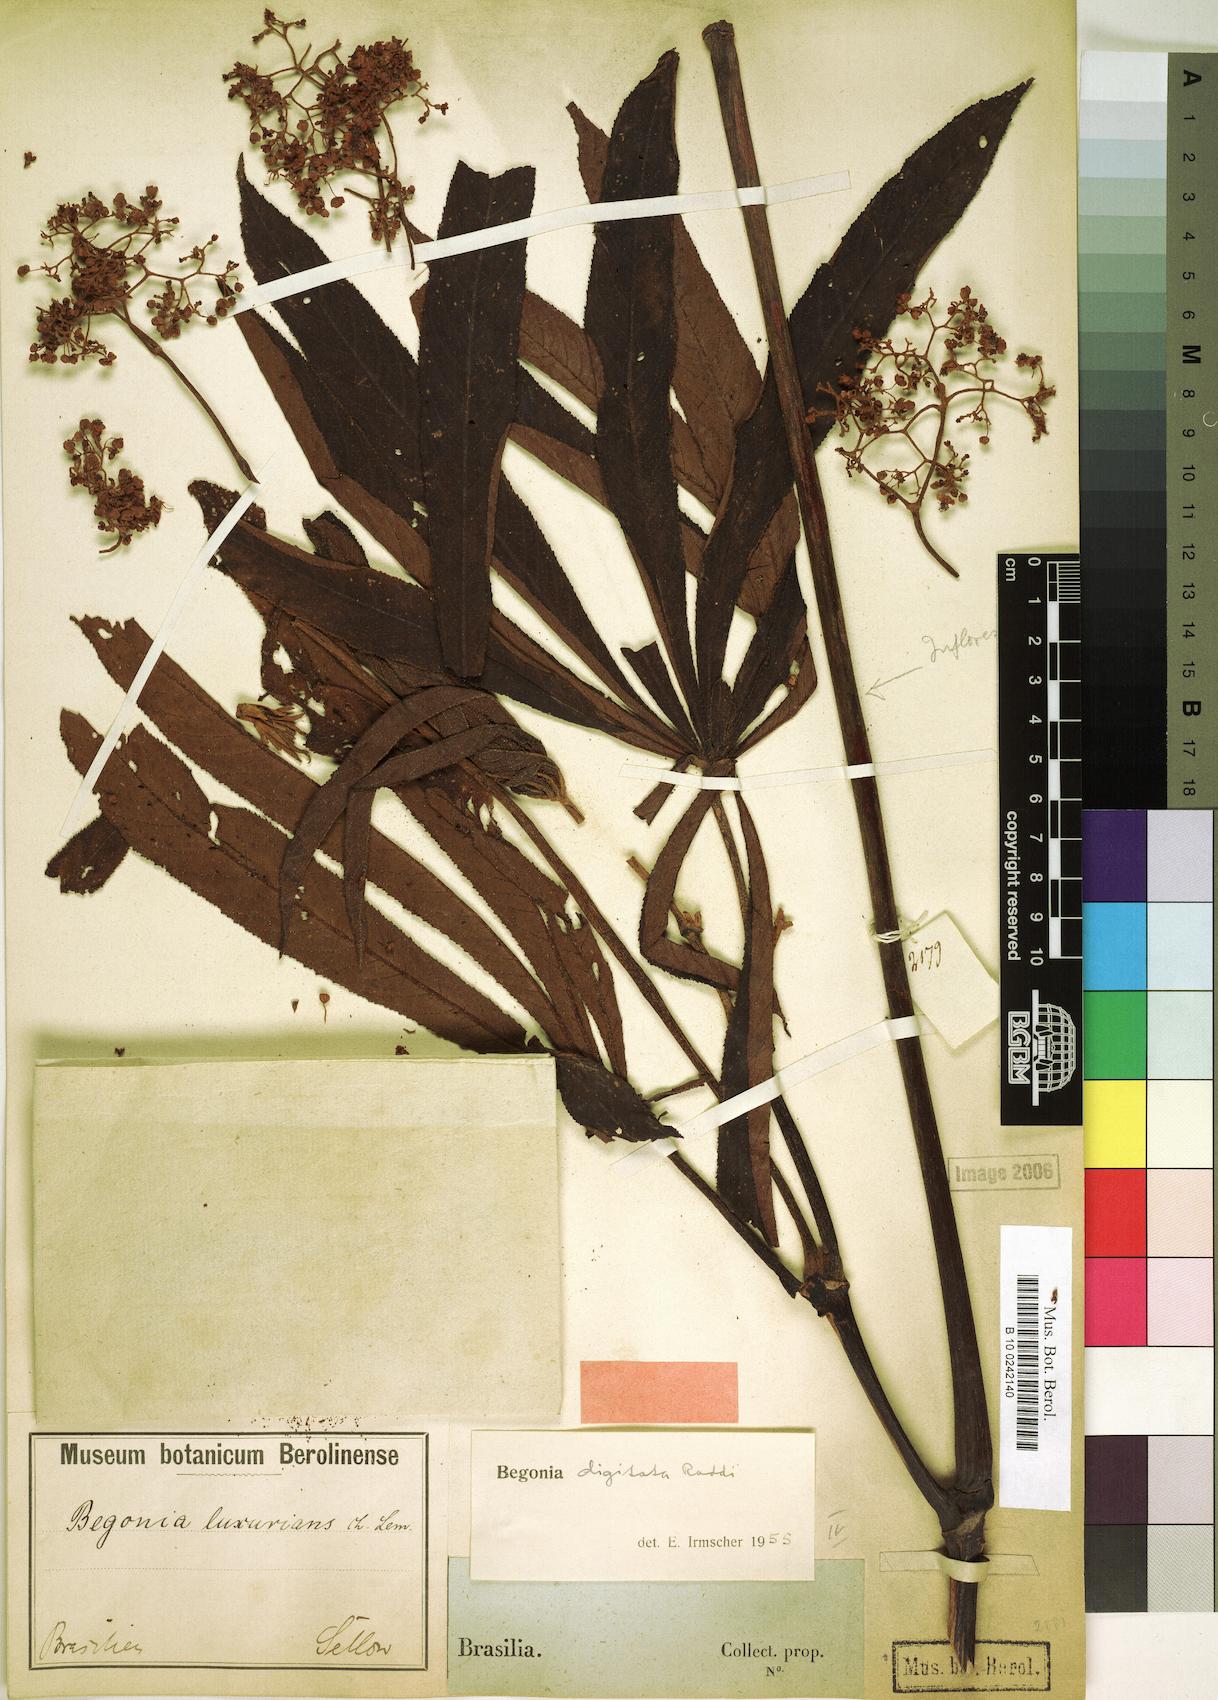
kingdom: Plantae
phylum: Tracheophyta
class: Magnoliopsida
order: Cucurbitales
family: Begoniaceae
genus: Begonia
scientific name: Begonia digitata
